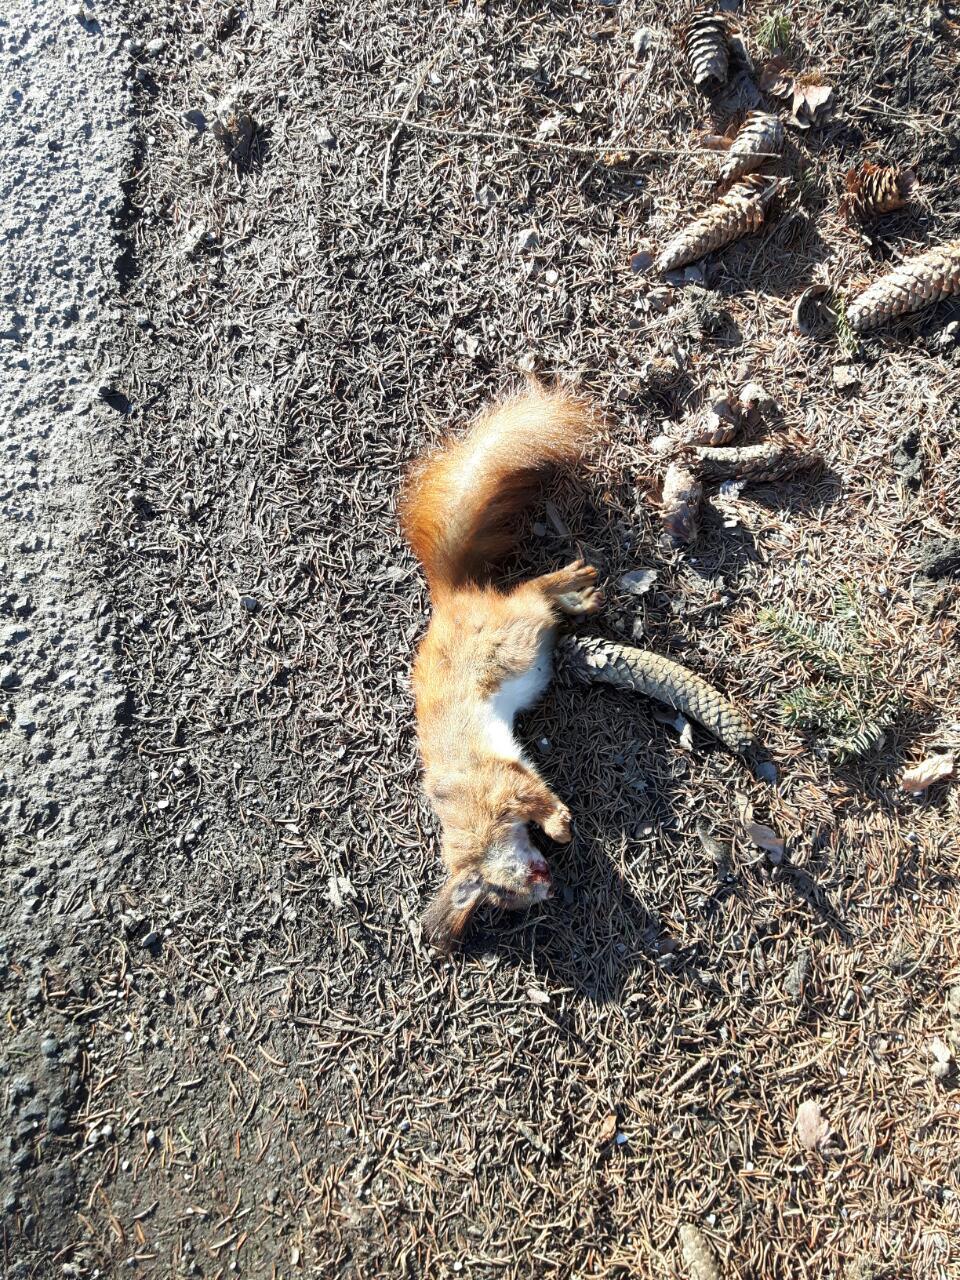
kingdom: Animalia
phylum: Chordata
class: Mammalia
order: Rodentia
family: Sciuridae
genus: Sciurus
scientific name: Sciurus vulgaris
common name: Eurasian red squirrel
